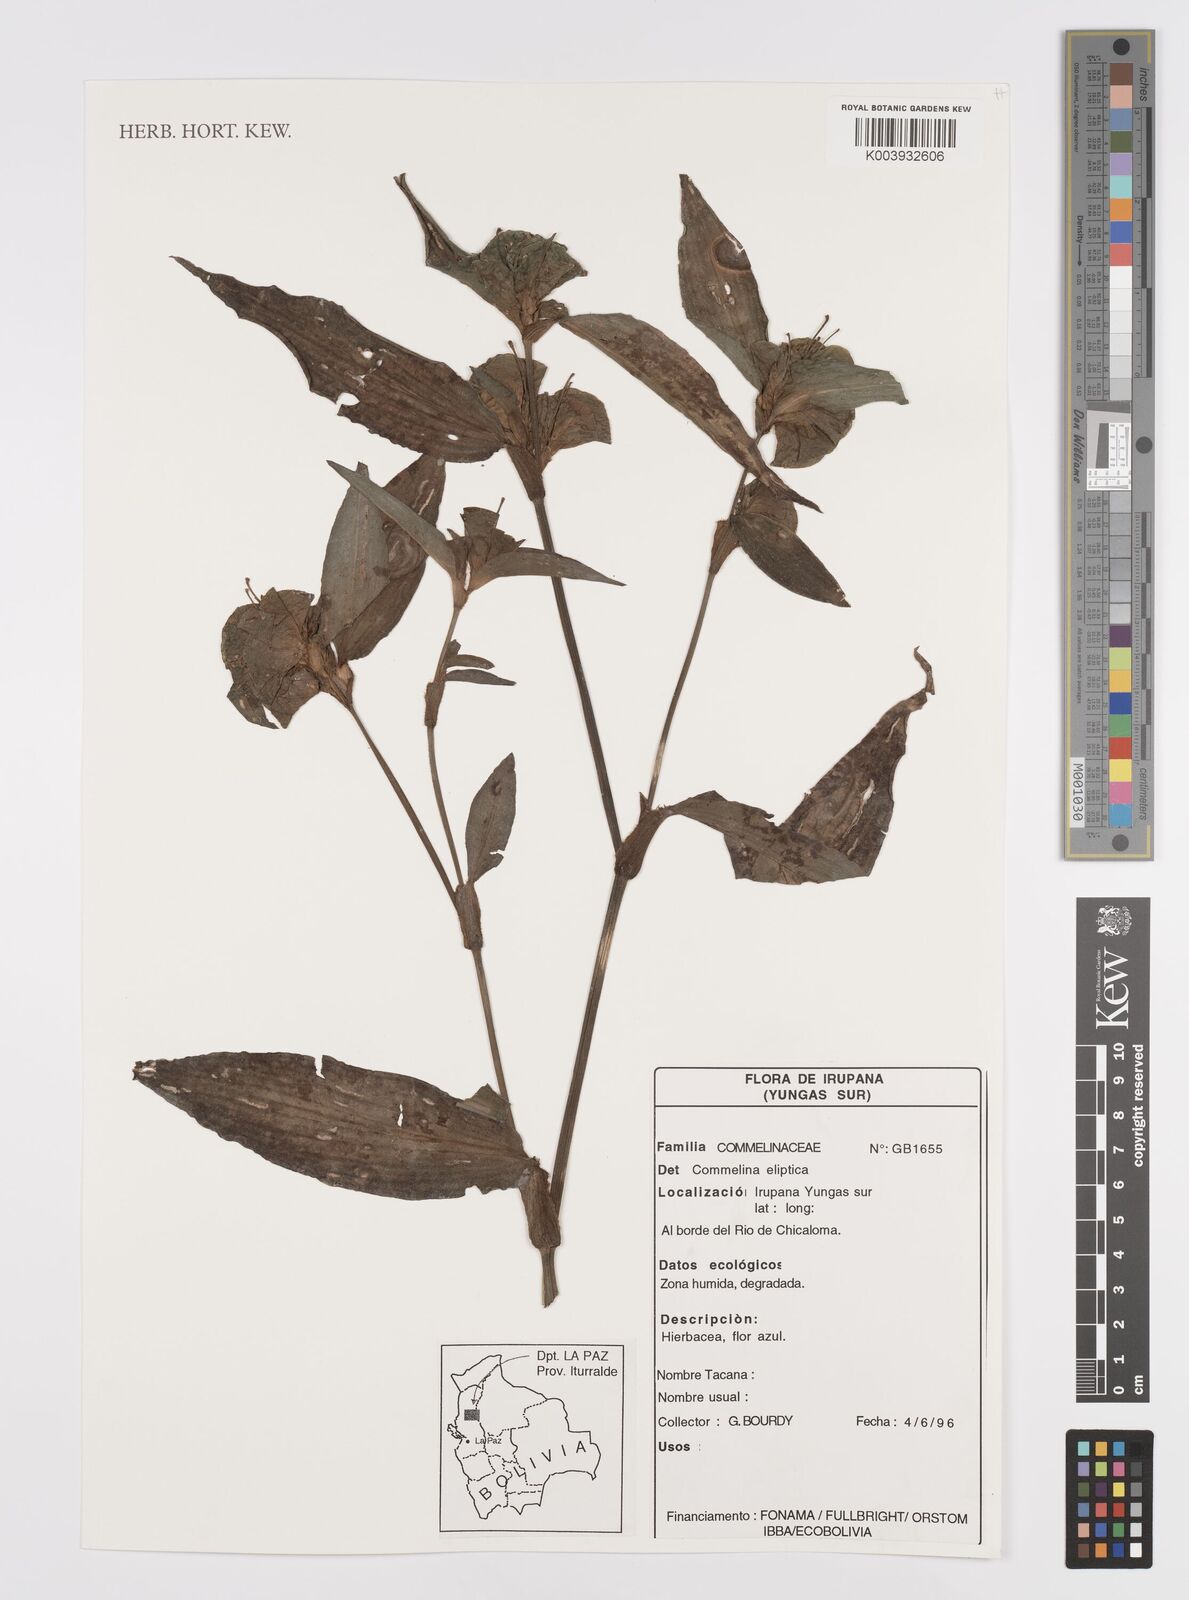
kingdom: Plantae
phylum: Tracheophyta
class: Liliopsida
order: Commelinales
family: Commelinaceae
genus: Commelina
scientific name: Commelina elliptica
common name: Peruvian spiderwort
